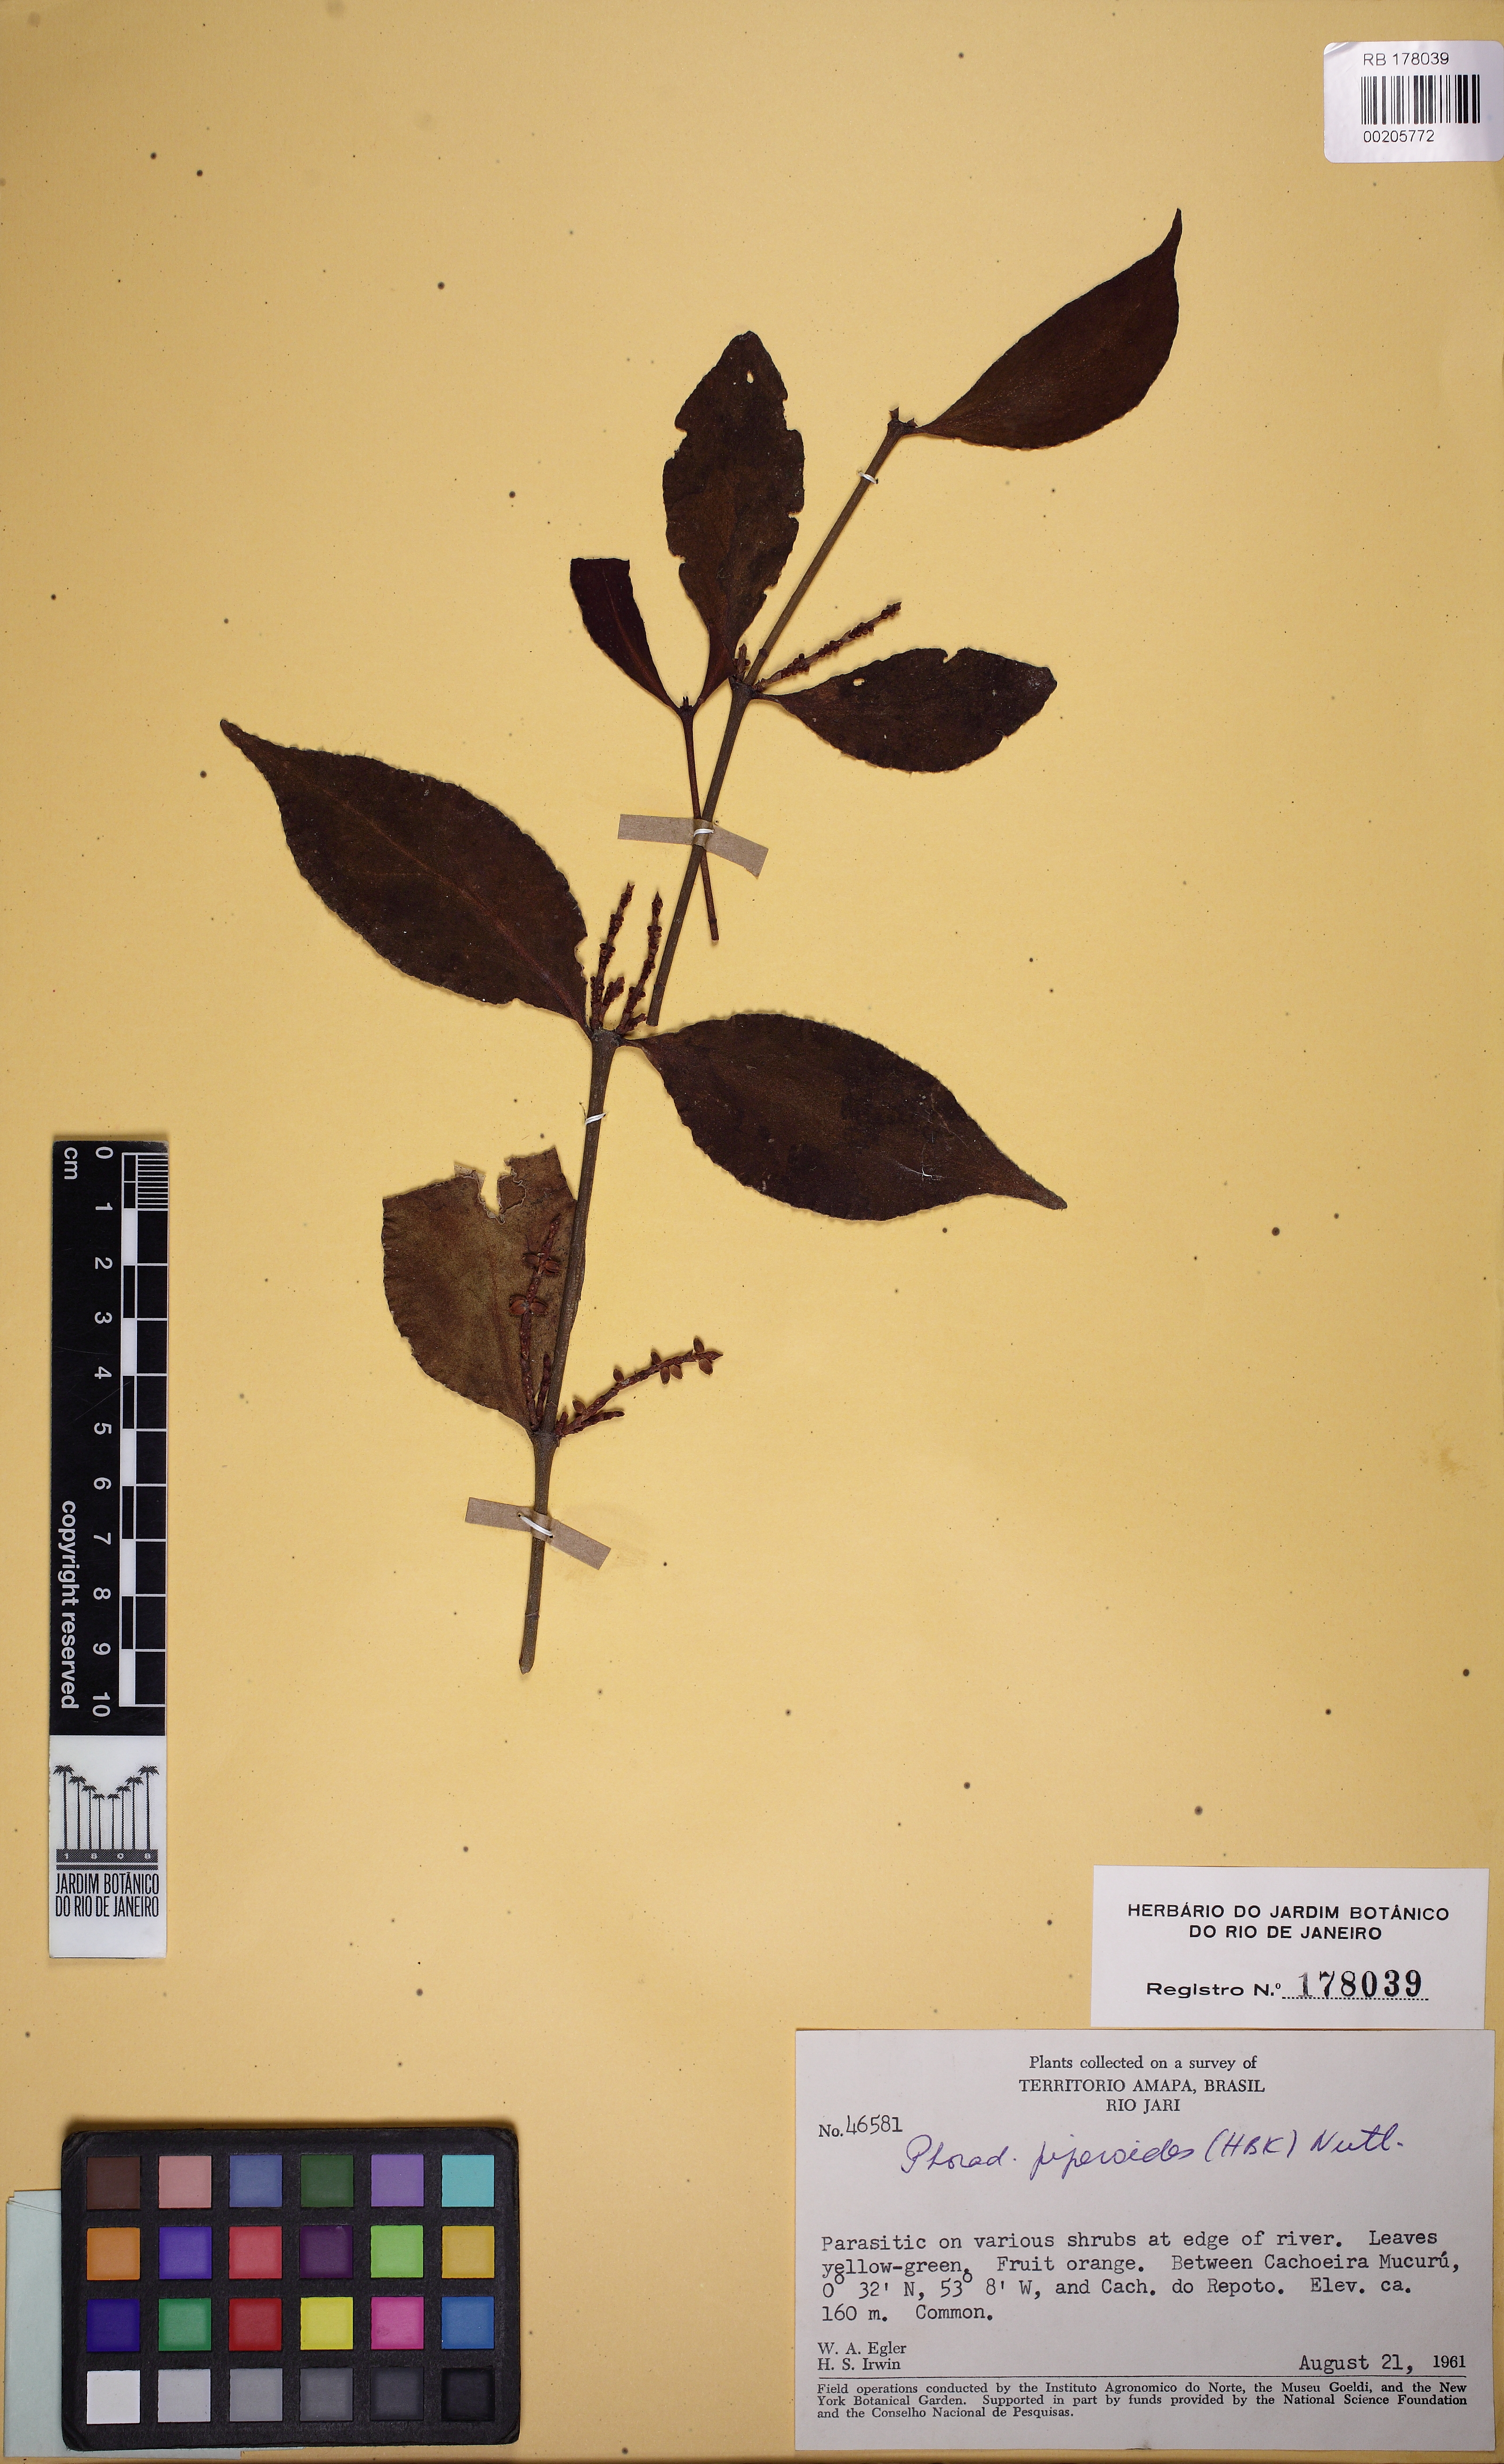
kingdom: Plantae
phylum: Tracheophyta
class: Magnoliopsida
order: Santalales
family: Viscaceae
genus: Phoradendron
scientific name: Phoradendron piperoides
